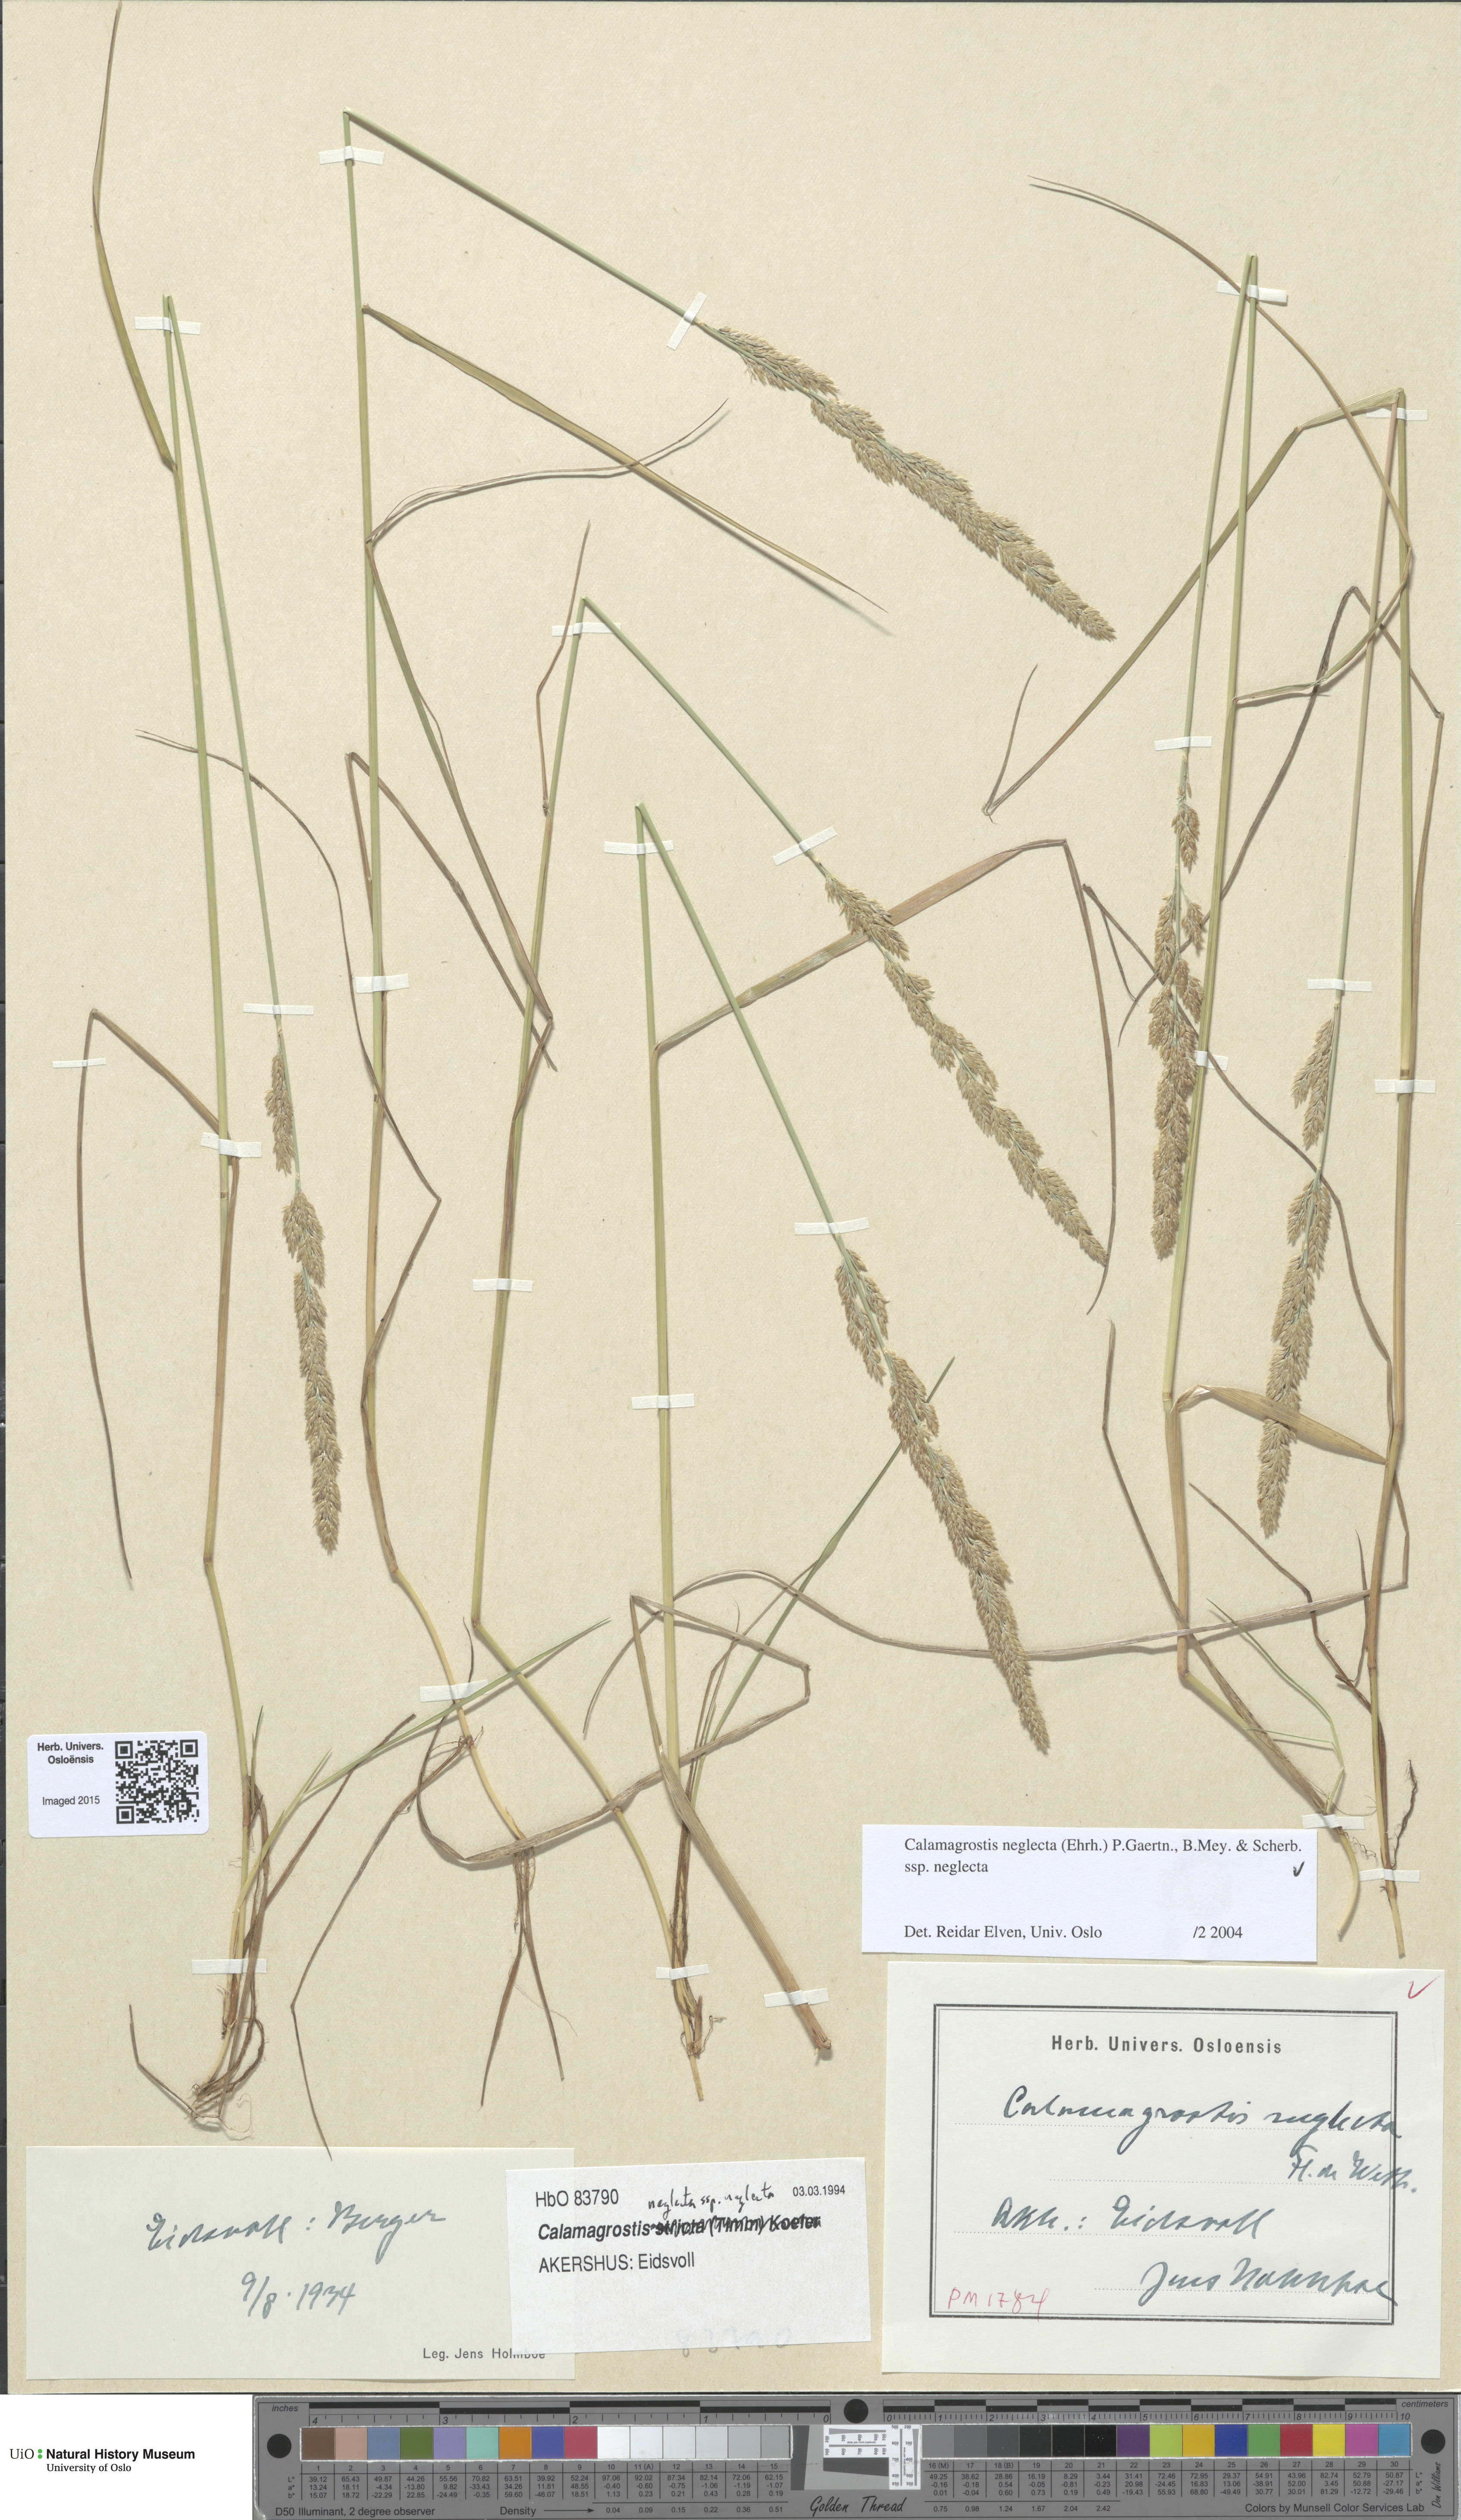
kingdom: Plantae
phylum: Tracheophyta
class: Liliopsida
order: Poales
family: Poaceae
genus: Achnatherum
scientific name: Achnatherum calamagrostis
